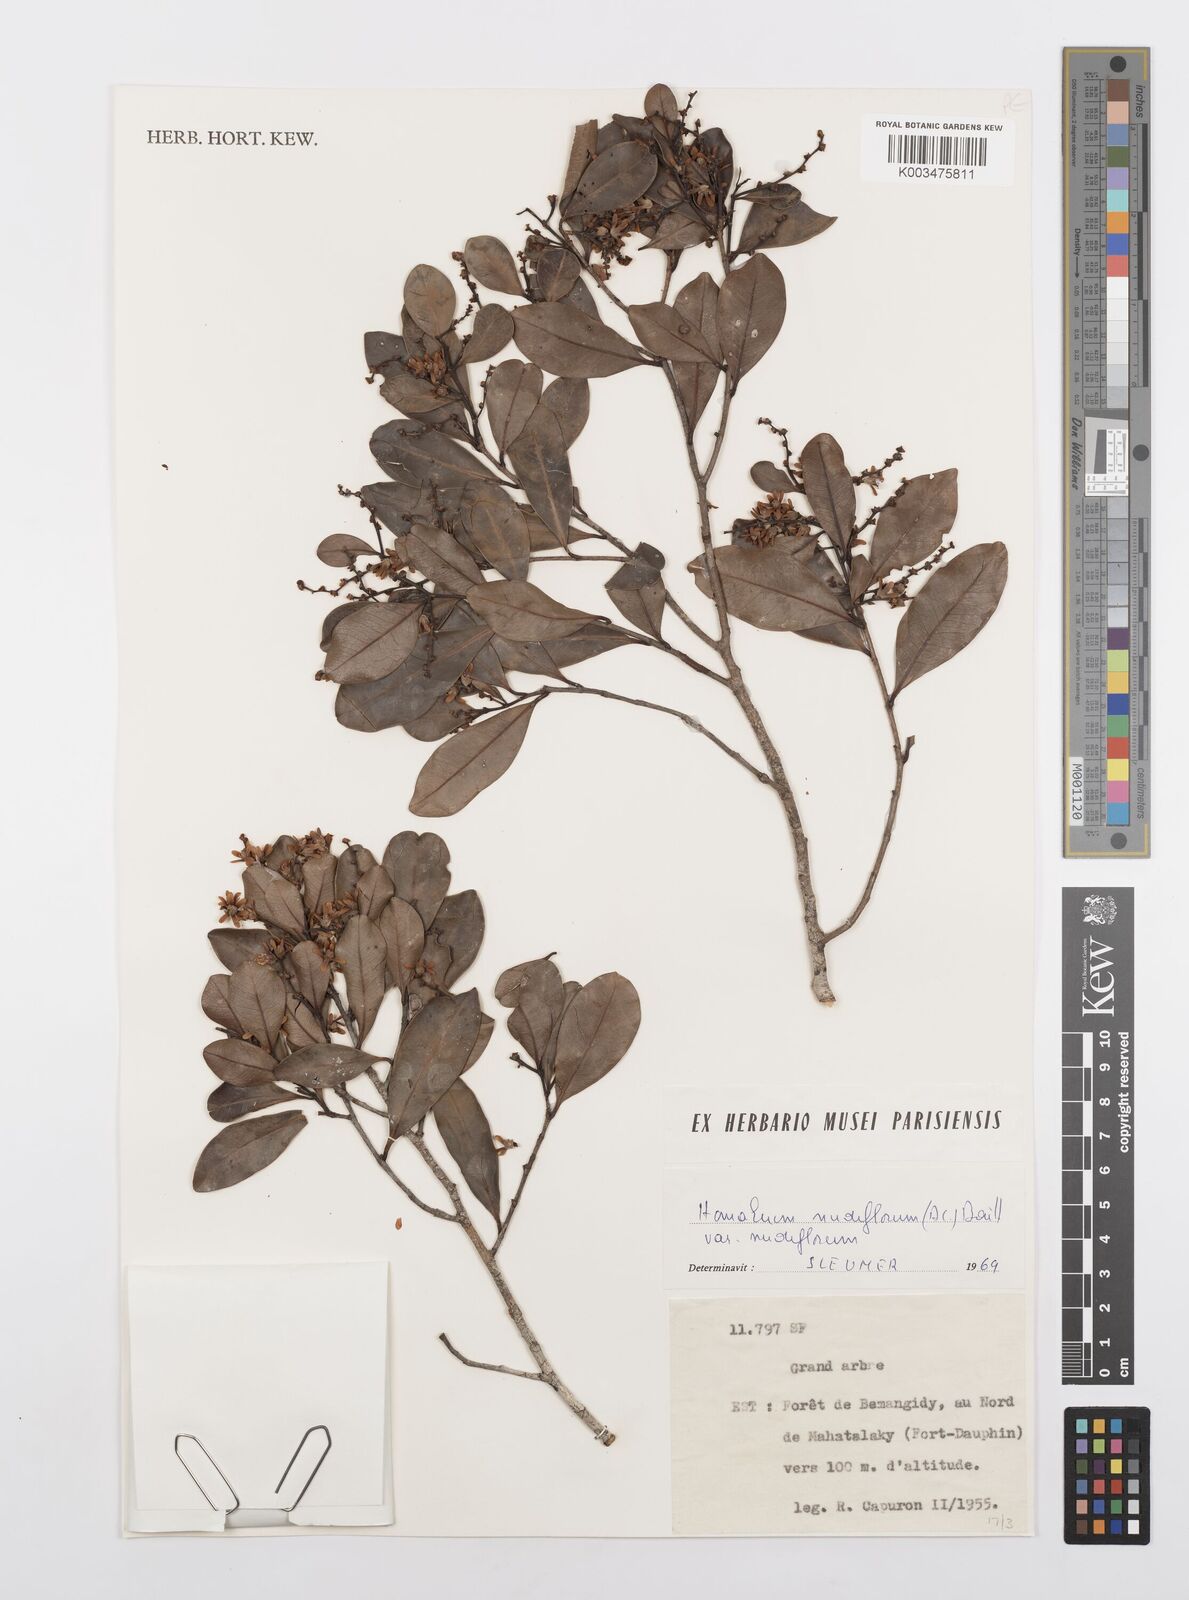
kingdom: Plantae
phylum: Tracheophyta
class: Magnoliopsida
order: Malpighiales
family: Salicaceae
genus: Homalium
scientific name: Homalium nudiflorum
